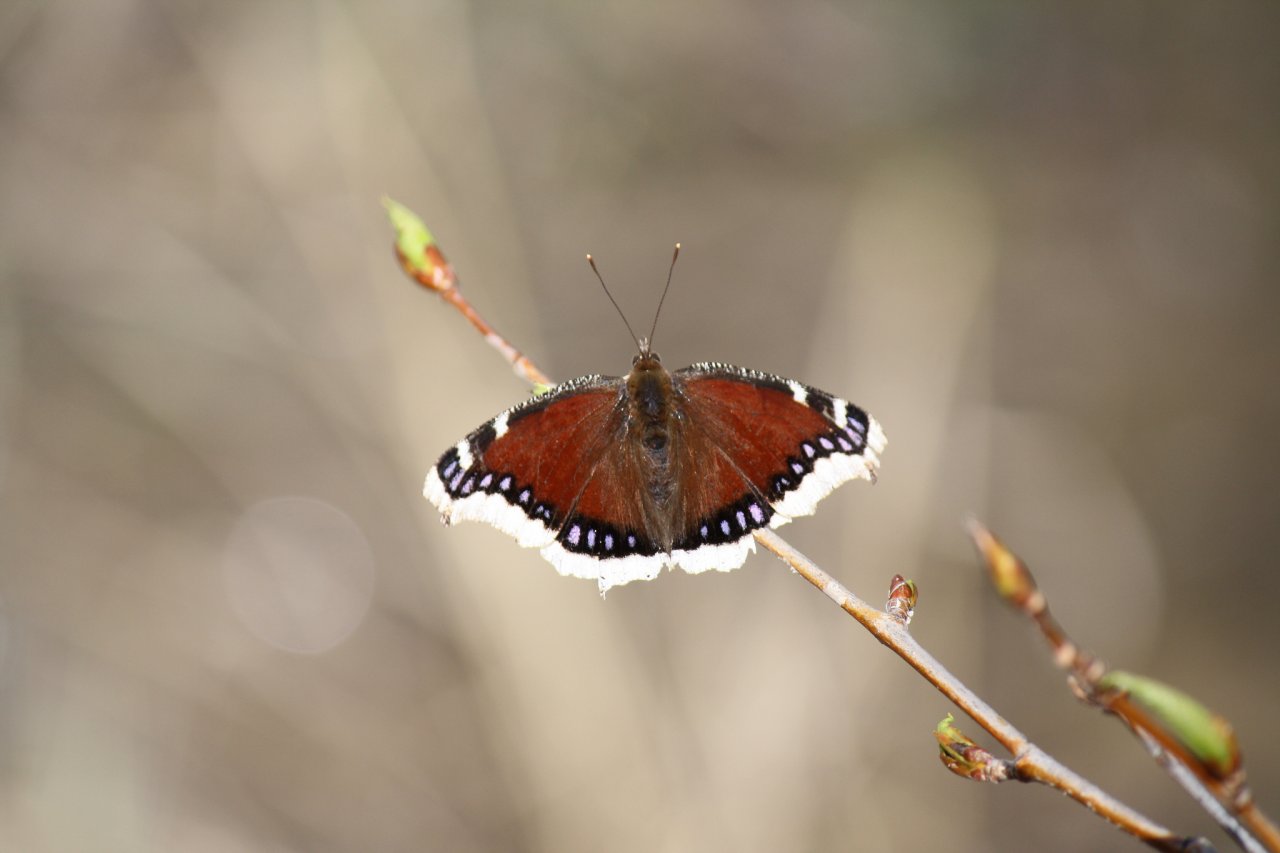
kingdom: Animalia
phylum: Arthropoda
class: Insecta
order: Lepidoptera
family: Nymphalidae
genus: Nymphalis
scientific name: Nymphalis antiopa
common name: Mourning Cloak
